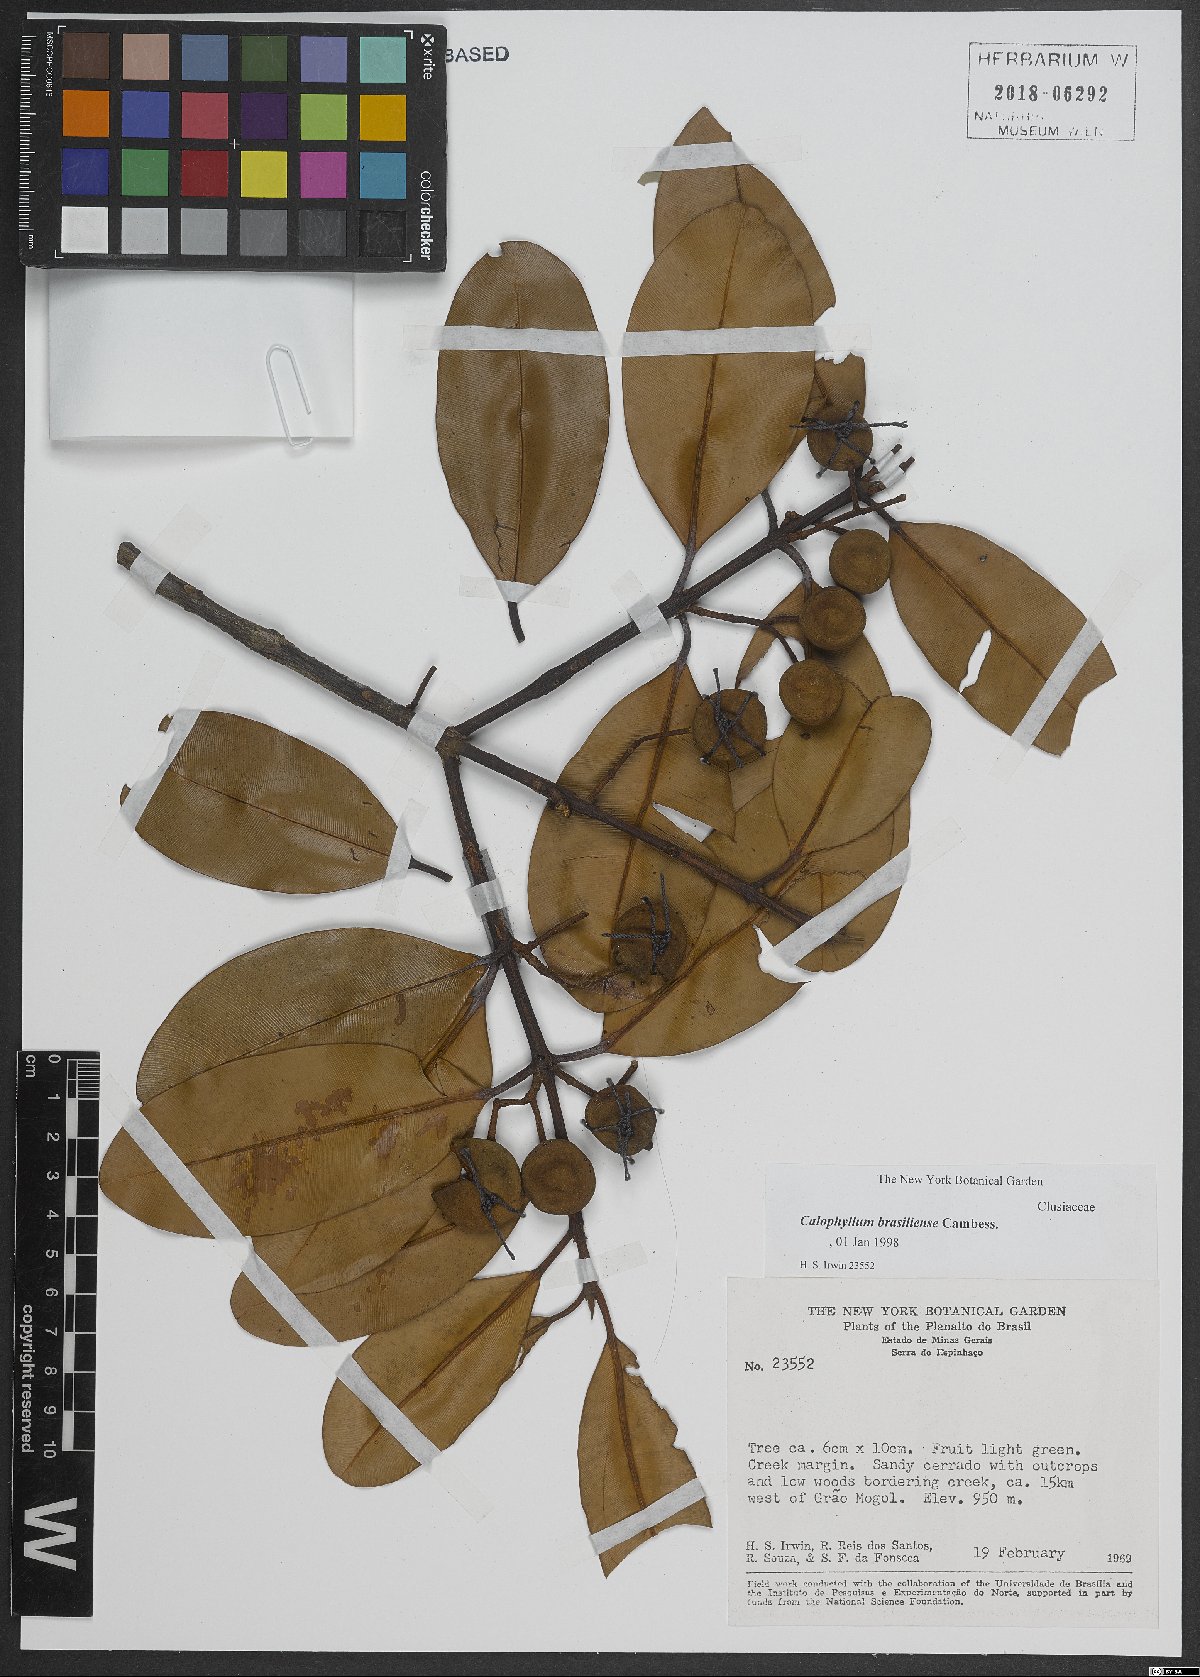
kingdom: Plantae
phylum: Tracheophyta
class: Magnoliopsida
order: Malpighiales
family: Calophyllaceae
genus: Calophyllum
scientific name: Calophyllum brasiliense
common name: Santa maria
